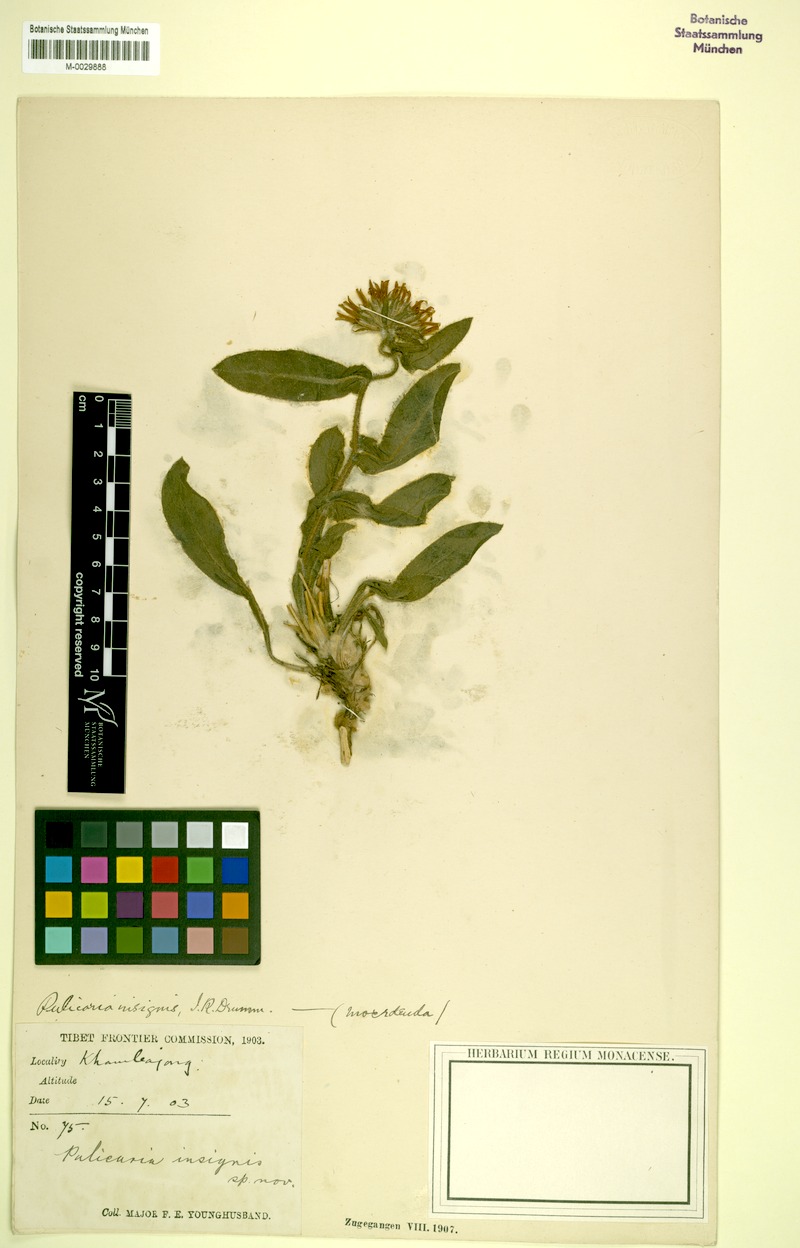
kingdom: Plantae
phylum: Tracheophyta
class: Magnoliopsida
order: Asterales
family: Asteraceae
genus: Pulicaria
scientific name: Pulicaria insignis
